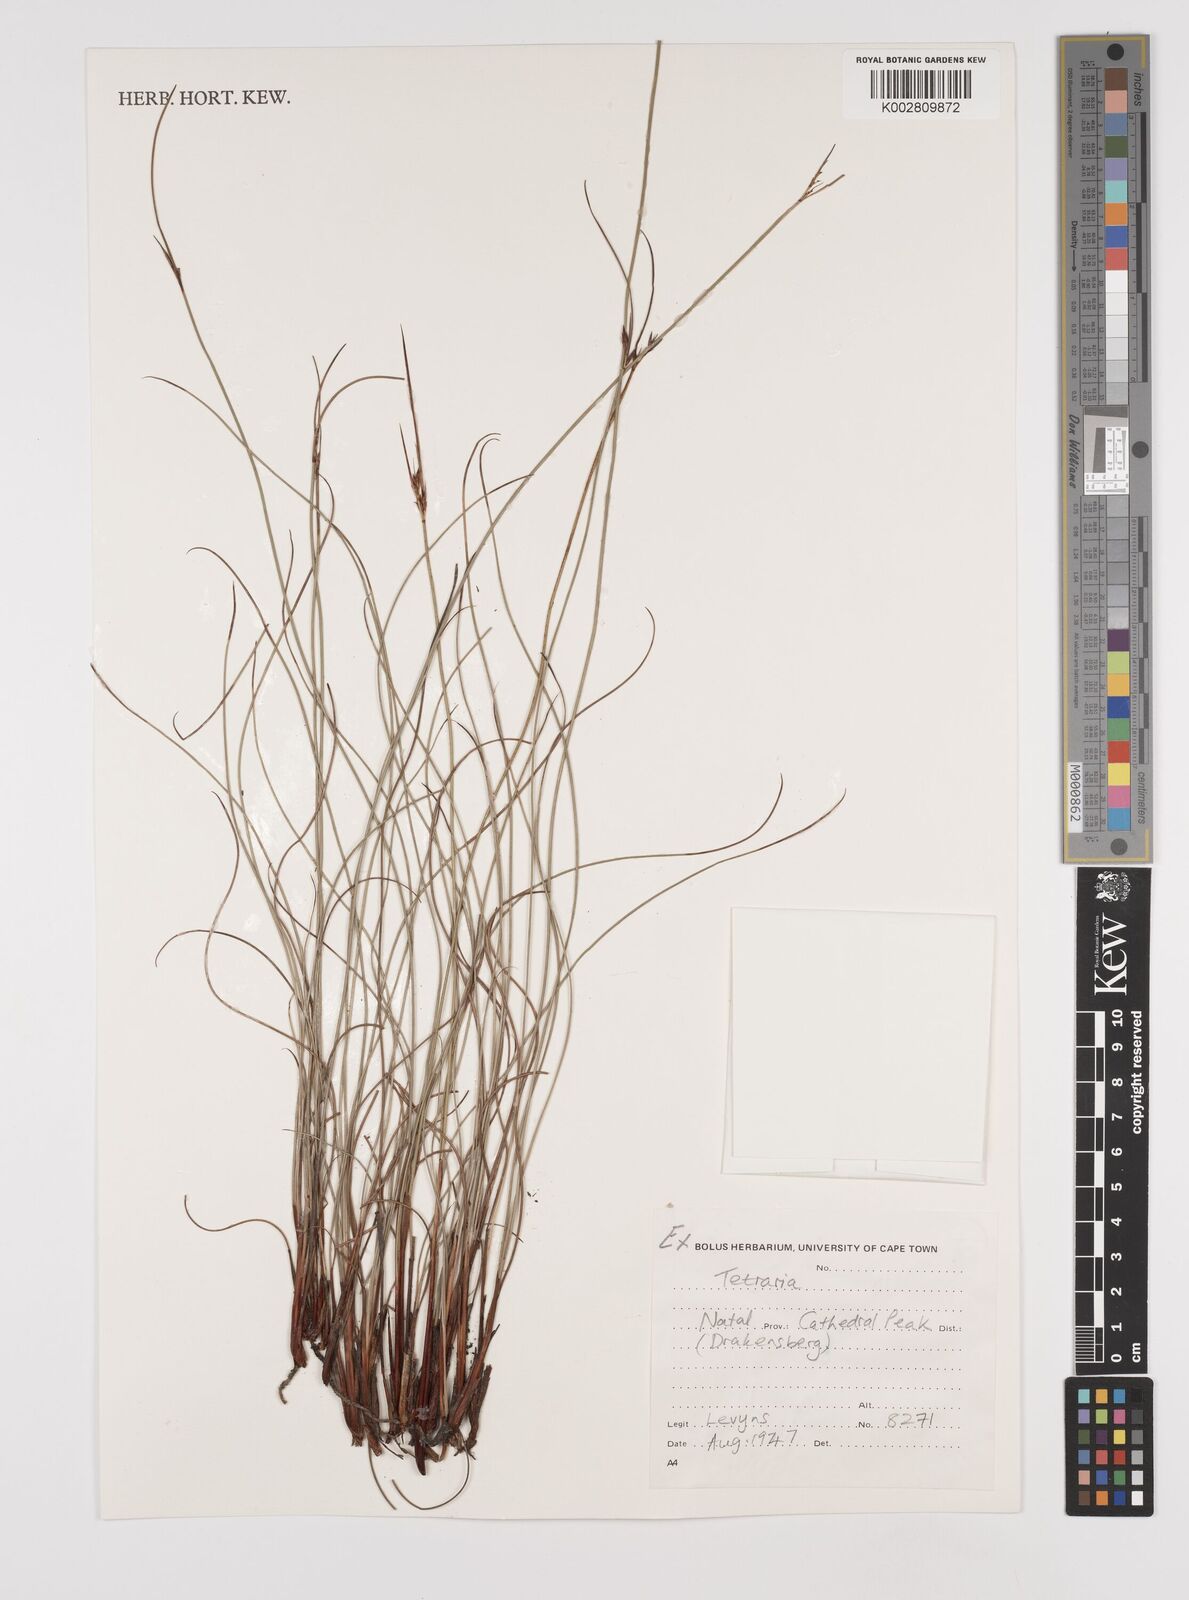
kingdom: Plantae
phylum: Tracheophyta
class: Liliopsida
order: Poales
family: Cyperaceae
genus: Schoenus
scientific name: Schoenus
